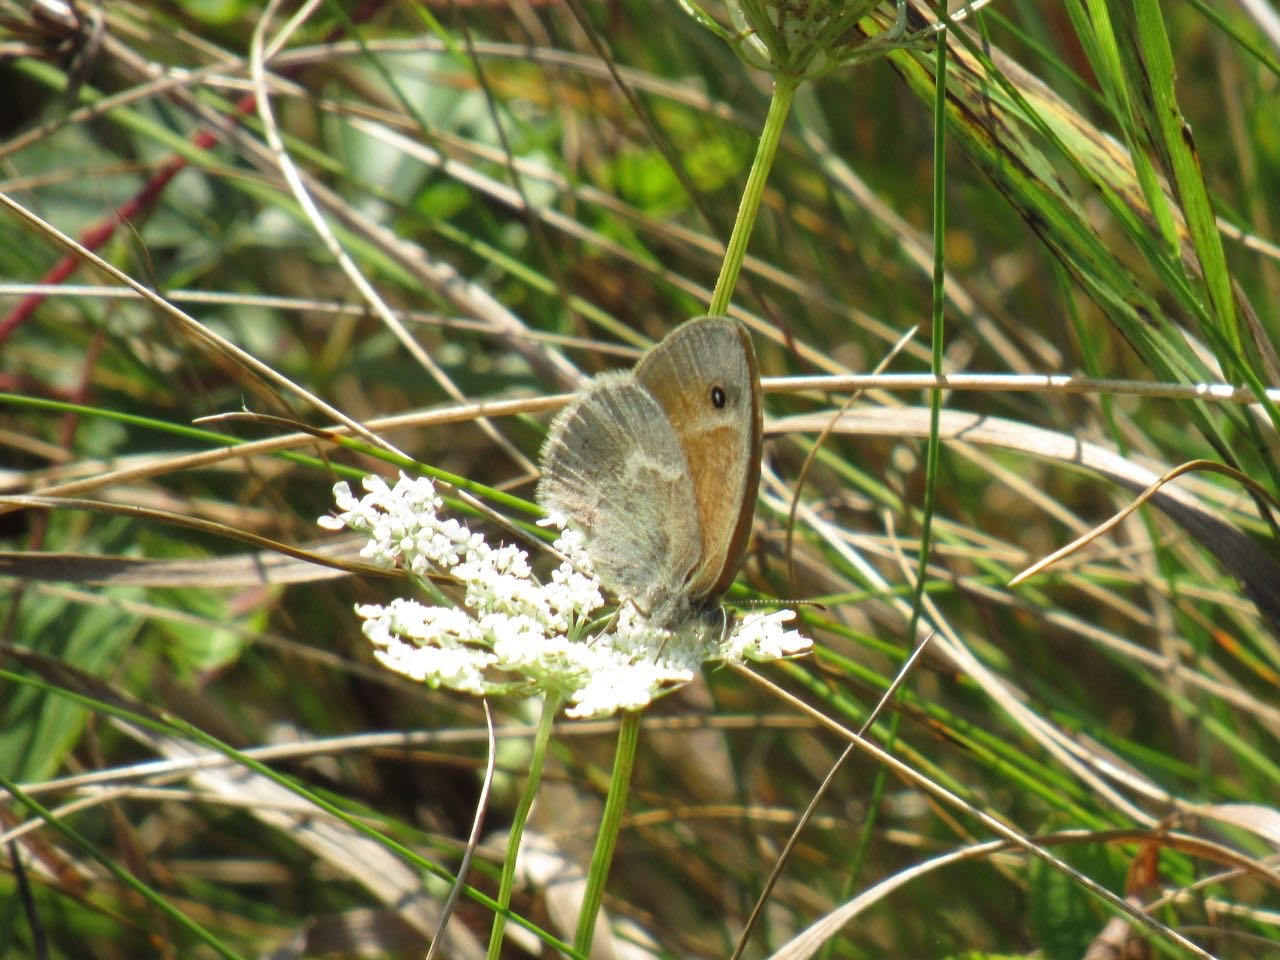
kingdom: Animalia
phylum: Arthropoda
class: Insecta
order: Lepidoptera
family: Nymphalidae
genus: Coenonympha
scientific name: Coenonympha tullia
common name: Large Heath
